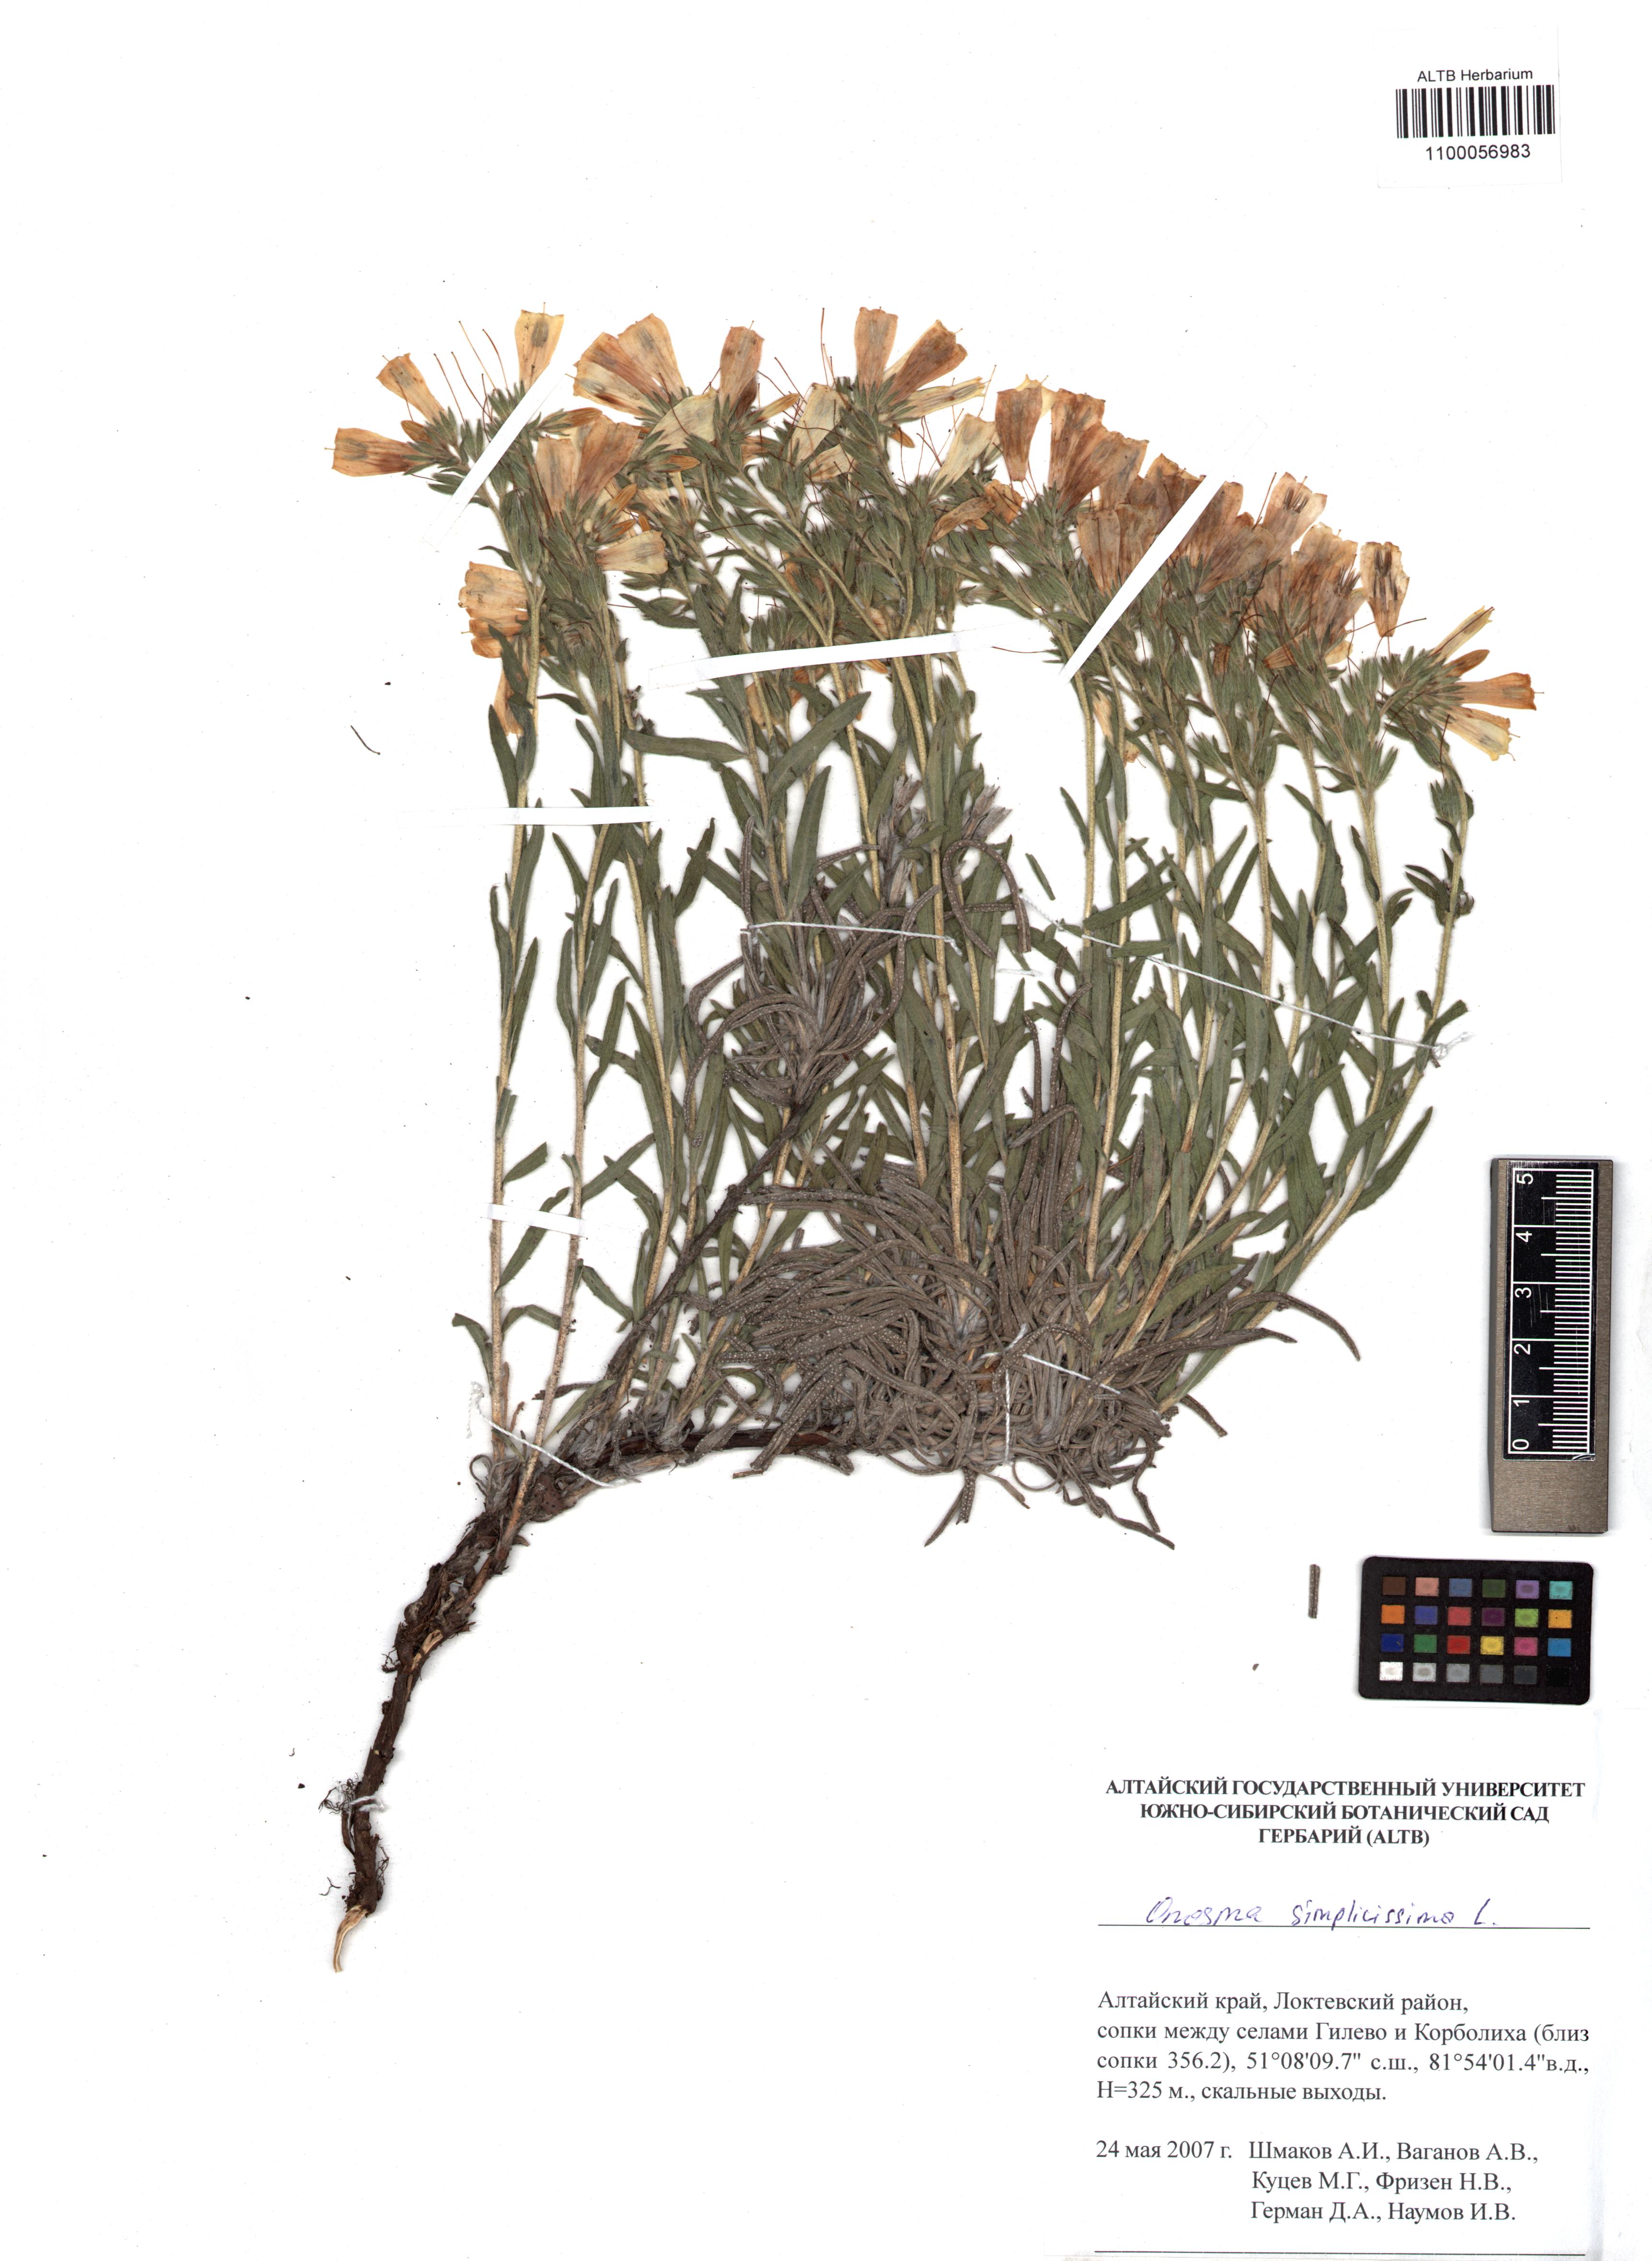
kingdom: Plantae
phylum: Tracheophyta
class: Magnoliopsida
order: Boraginales
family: Boraginaceae
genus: Onosma
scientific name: Onosma simplicissima
